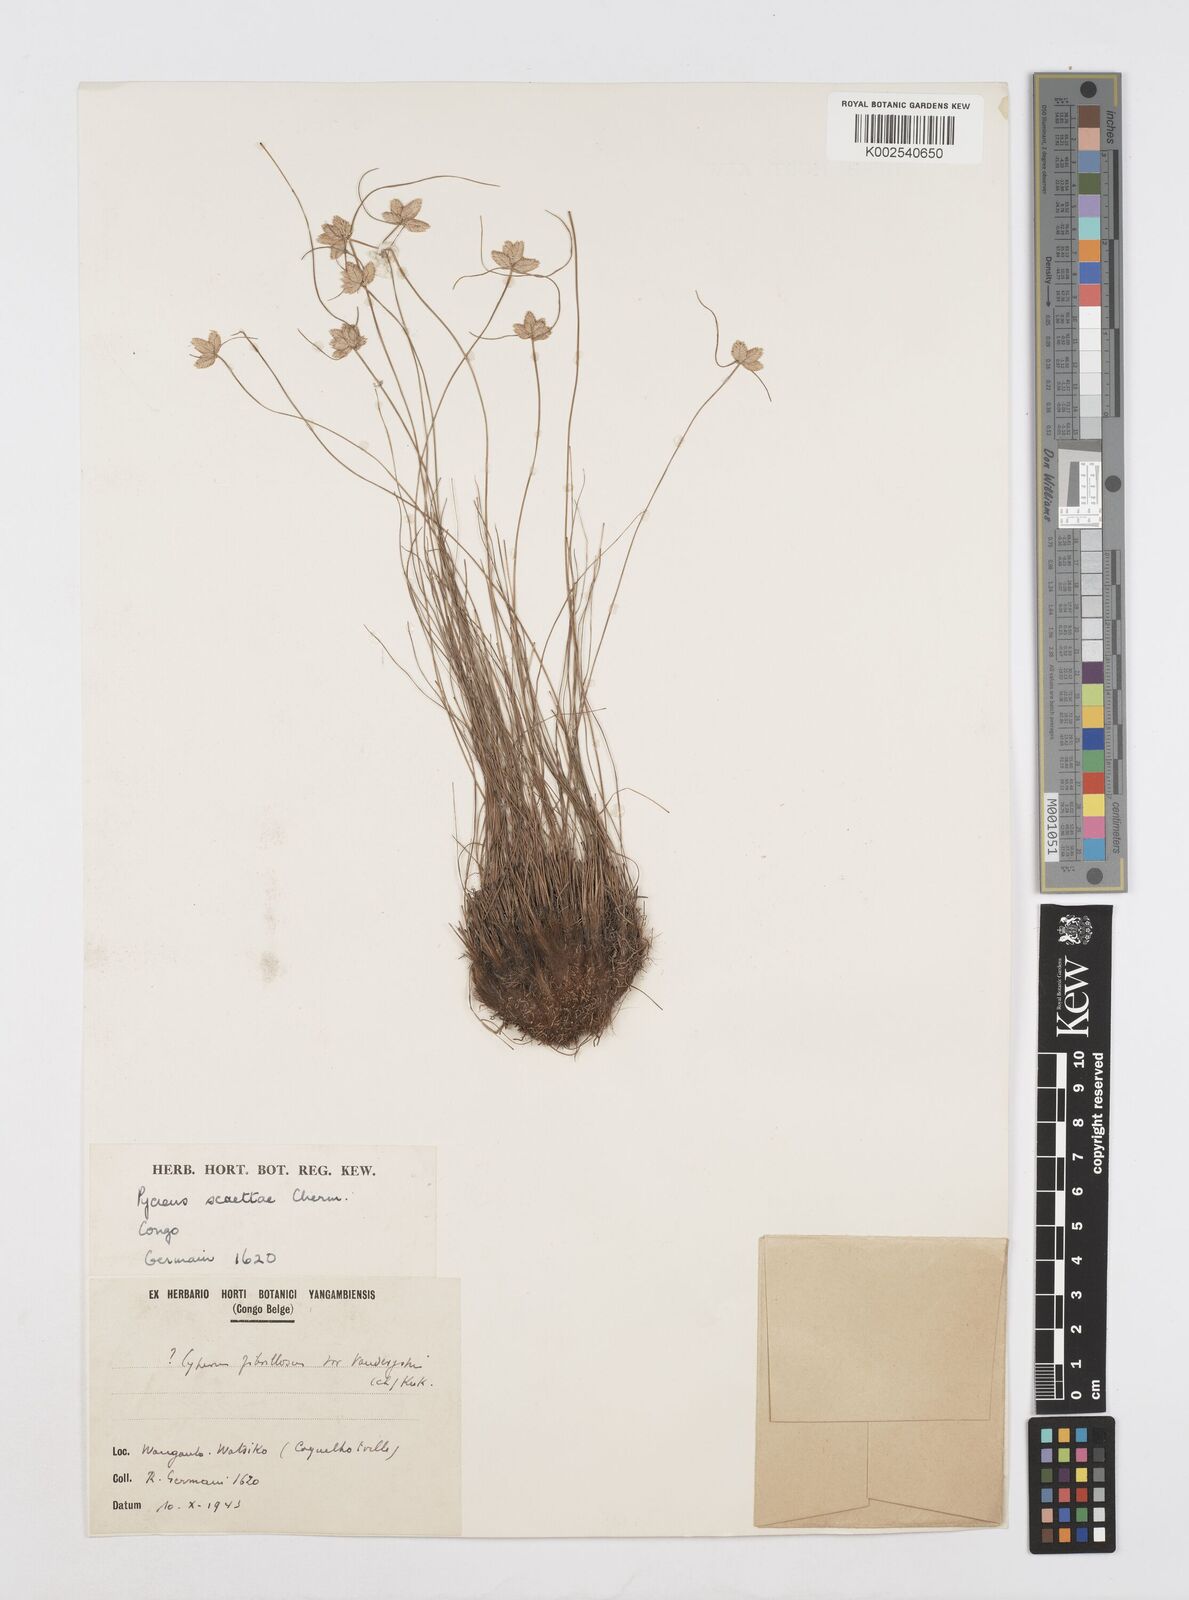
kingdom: Plantae
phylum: Tracheophyta
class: Liliopsida
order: Poales
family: Cyperaceae
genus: Cyperus
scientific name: Cyperus scaettae
